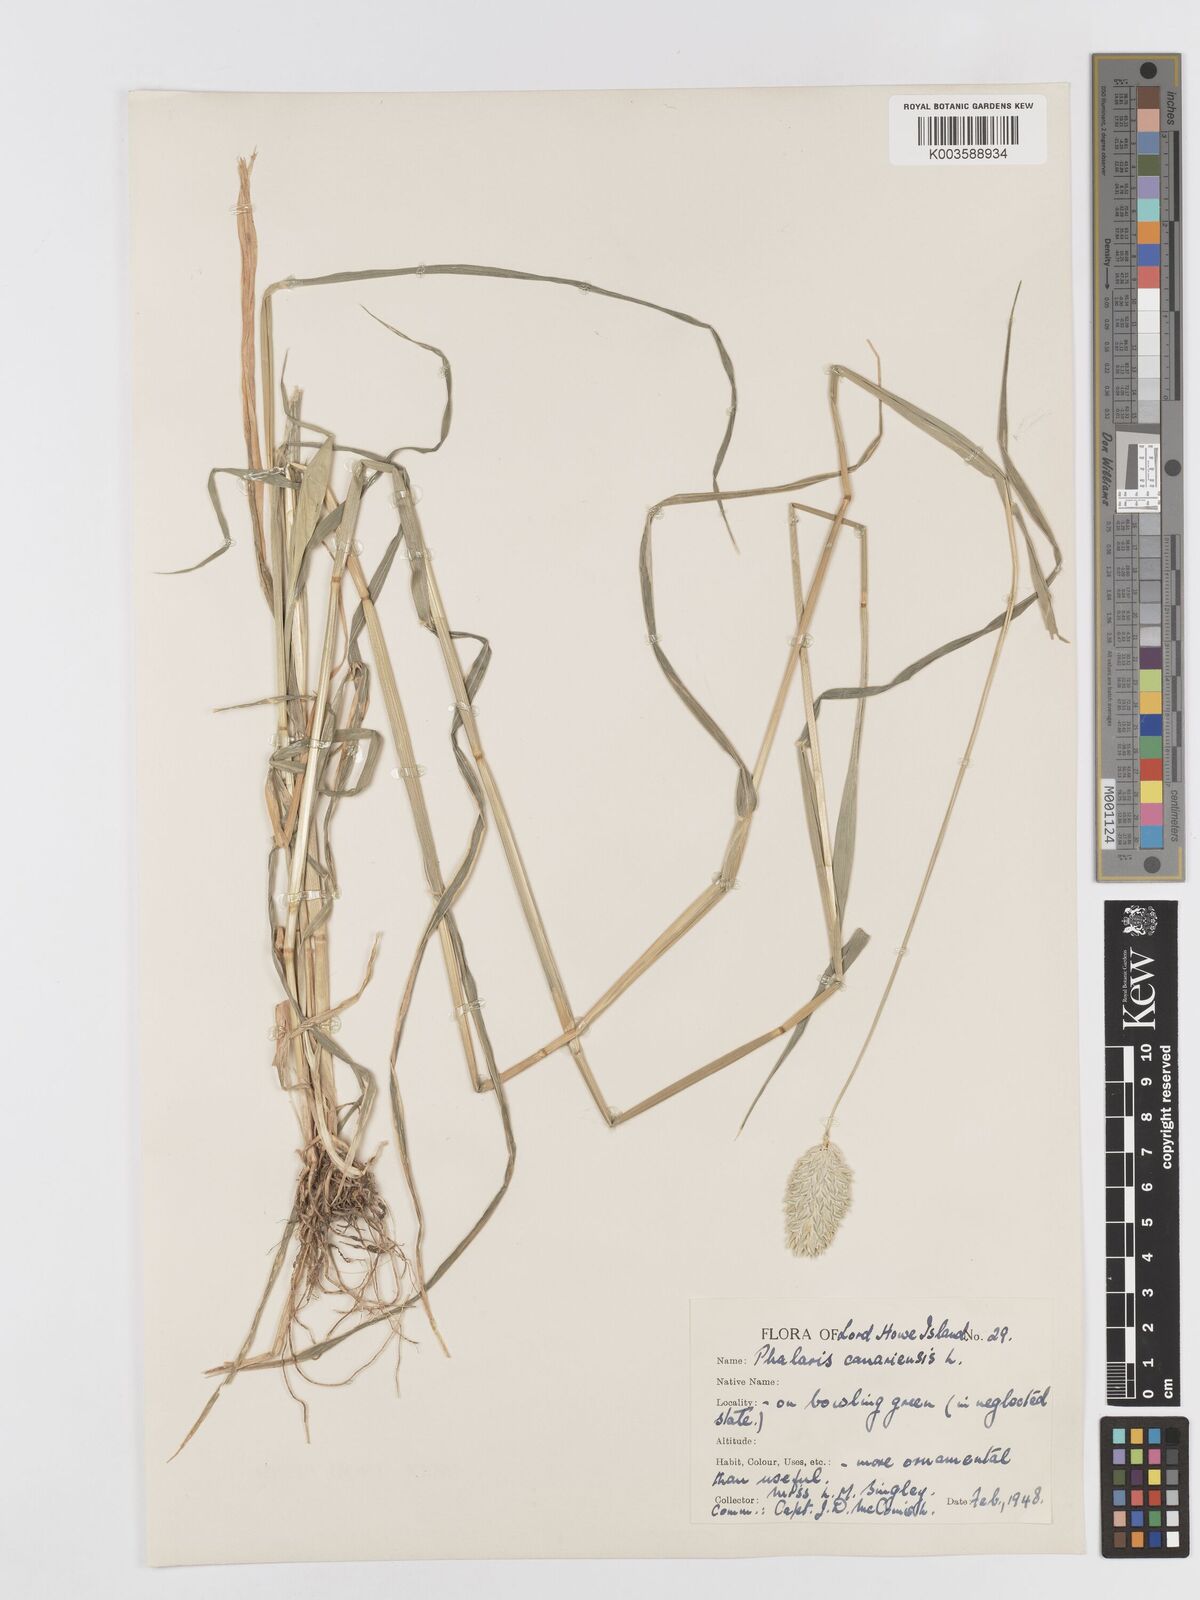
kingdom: Plantae
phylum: Tracheophyta
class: Liliopsida
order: Poales
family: Poaceae
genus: Phalaris
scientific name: Phalaris canariensis
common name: Annual canarygrass
